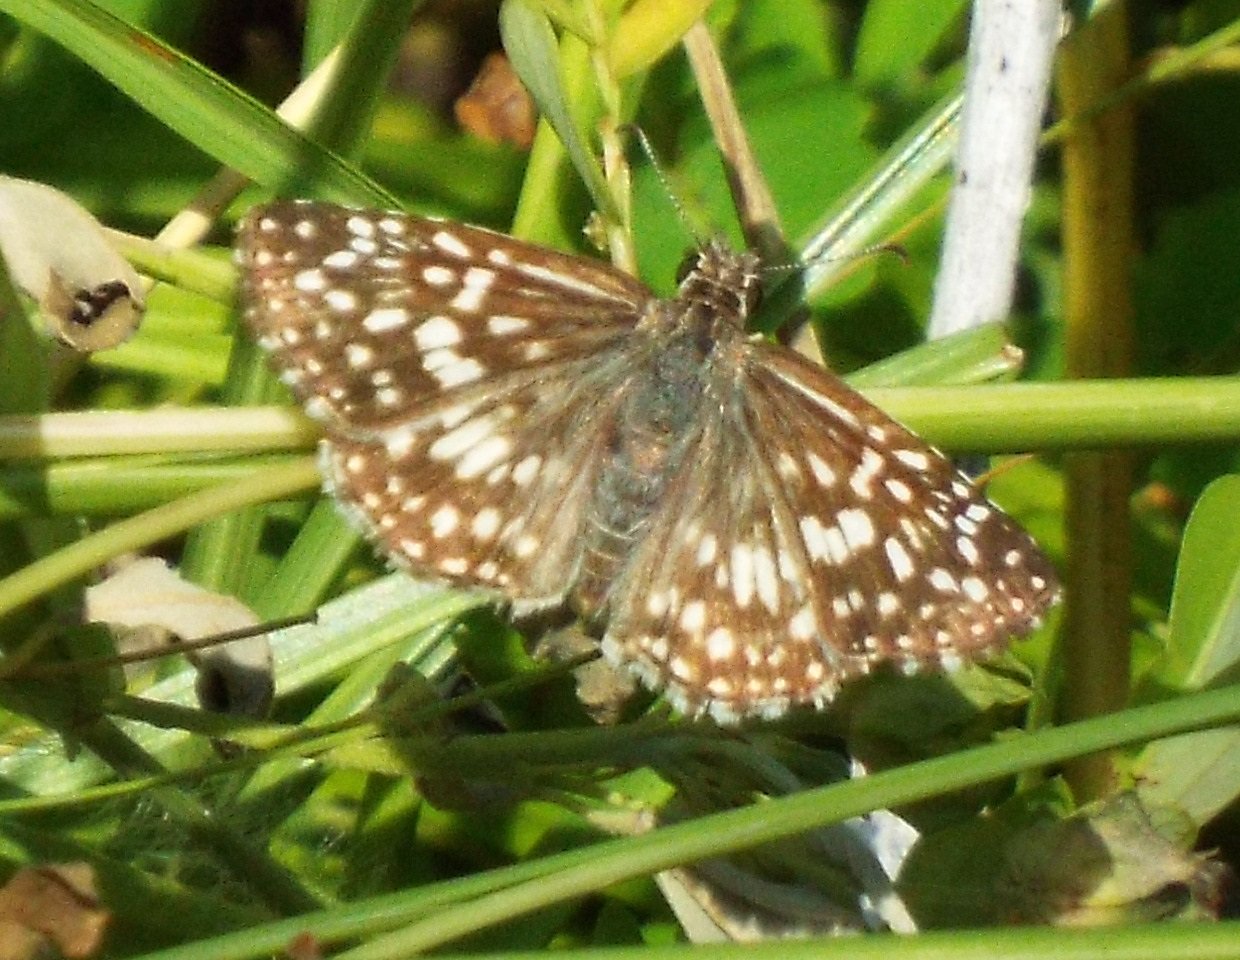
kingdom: Animalia
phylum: Arthropoda
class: Insecta
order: Lepidoptera
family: Hesperiidae
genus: Pyrgus
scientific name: Pyrgus oileus
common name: Tropical Checkered-Skipper
